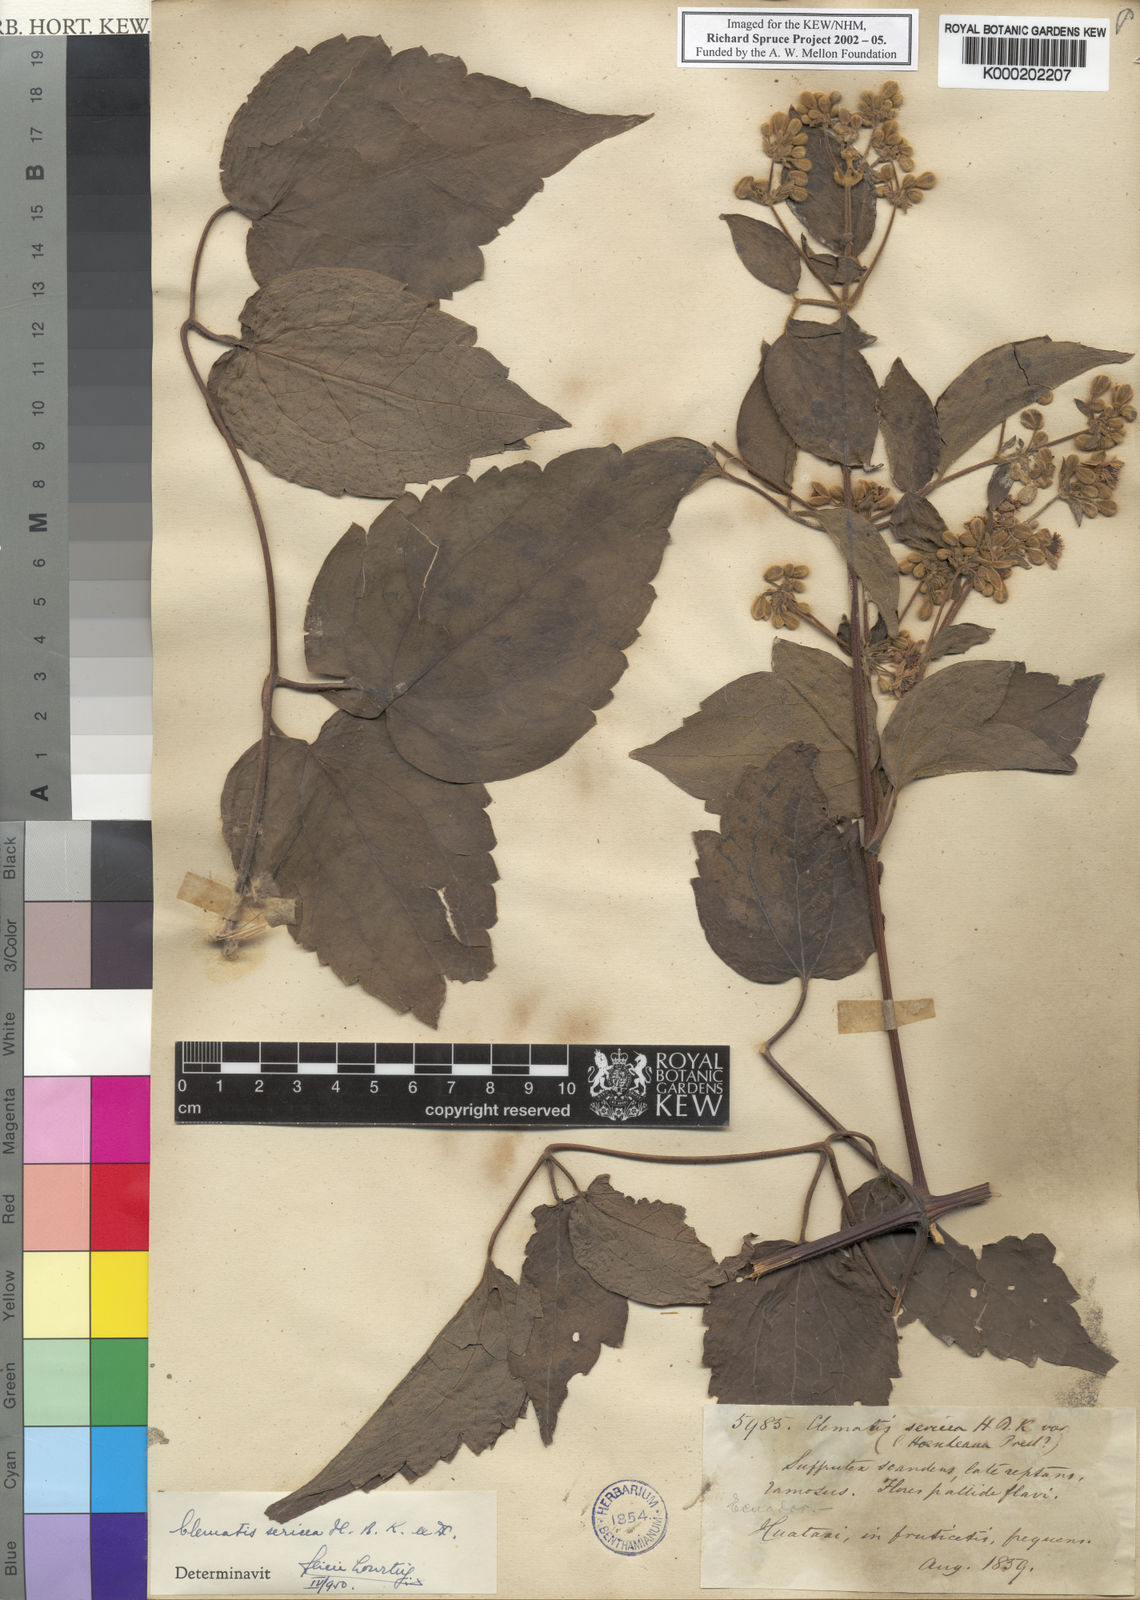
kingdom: Plantae
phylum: Tracheophyta
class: Magnoliopsida
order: Ranunculales
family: Ranunculaceae
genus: Clematis
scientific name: Clematis ochroleuca
